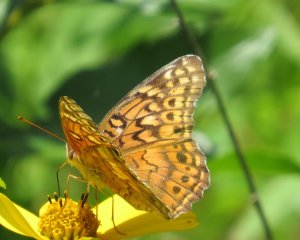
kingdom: Animalia
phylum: Arthropoda
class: Insecta
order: Lepidoptera
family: Nymphalidae
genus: Euptoieta
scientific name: Euptoieta claudia
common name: Variegated Fritillary
